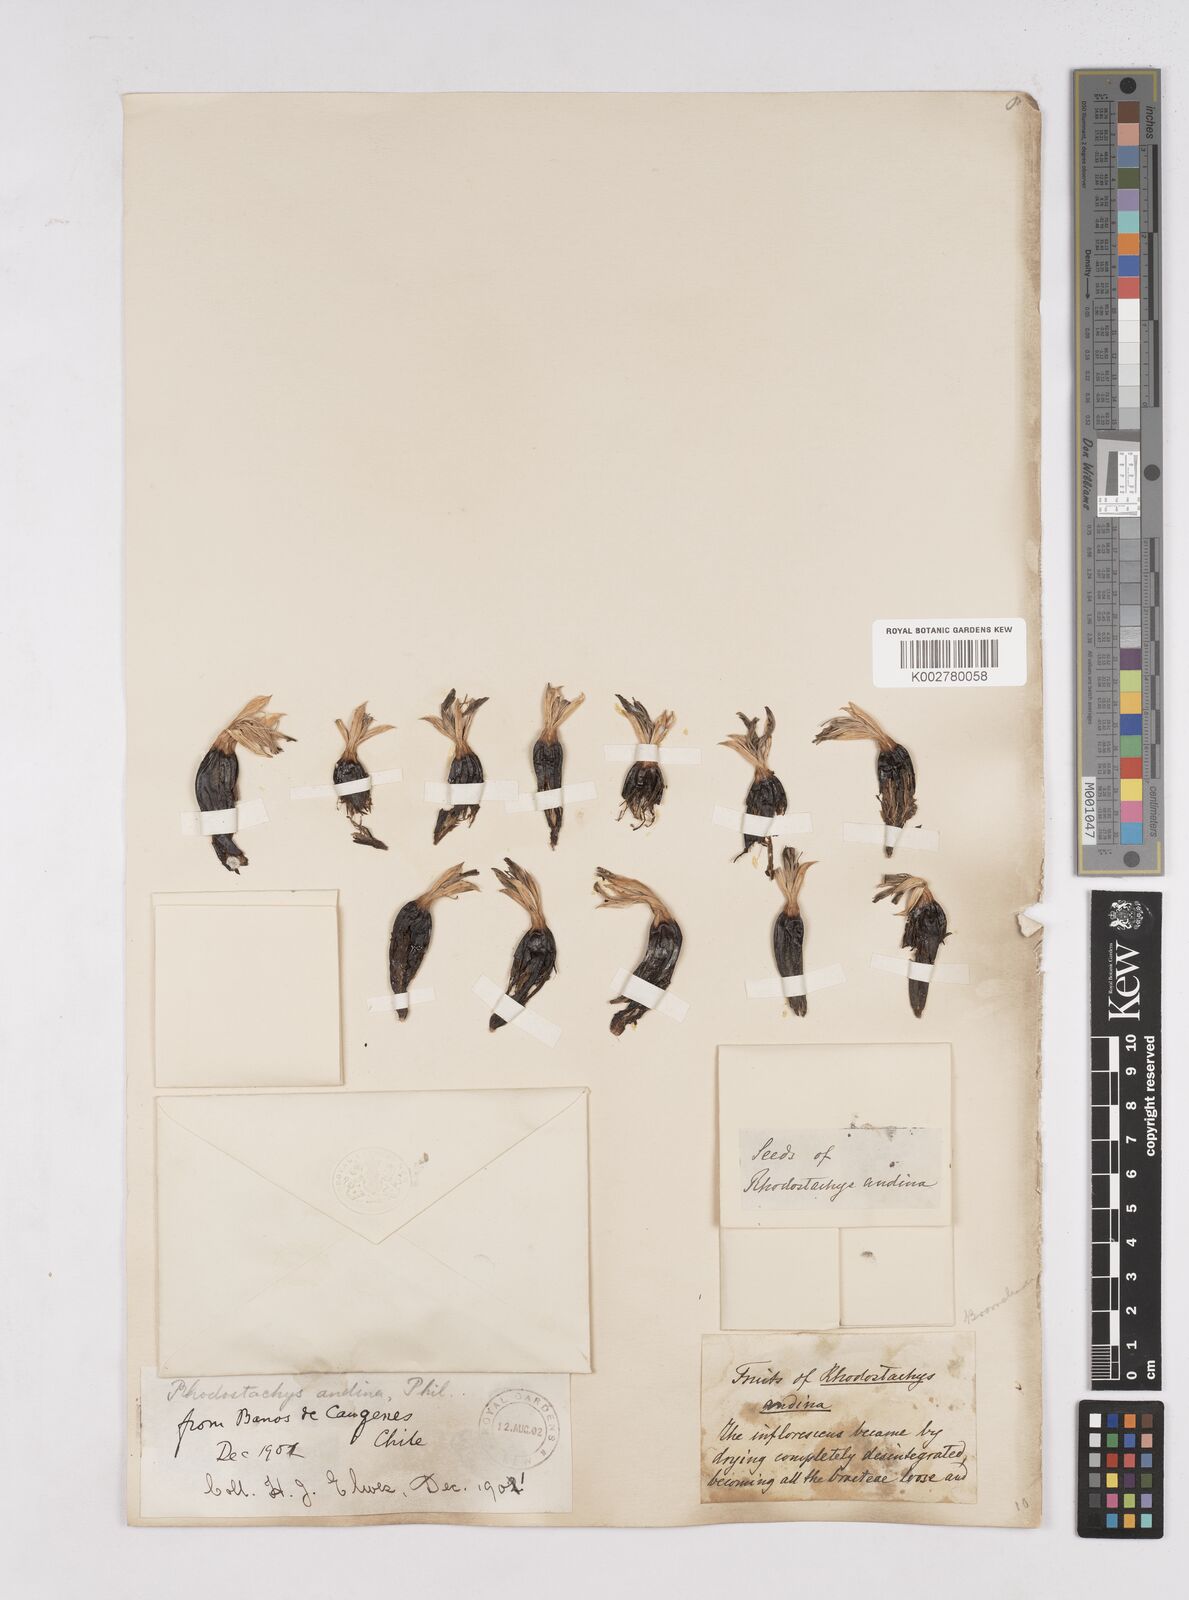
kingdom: Plantae
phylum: Tracheophyta
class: Liliopsida
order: Poales
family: Bromeliaceae
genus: Ochagavia
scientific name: Ochagavia carnea
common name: Tresco rhodostachys
